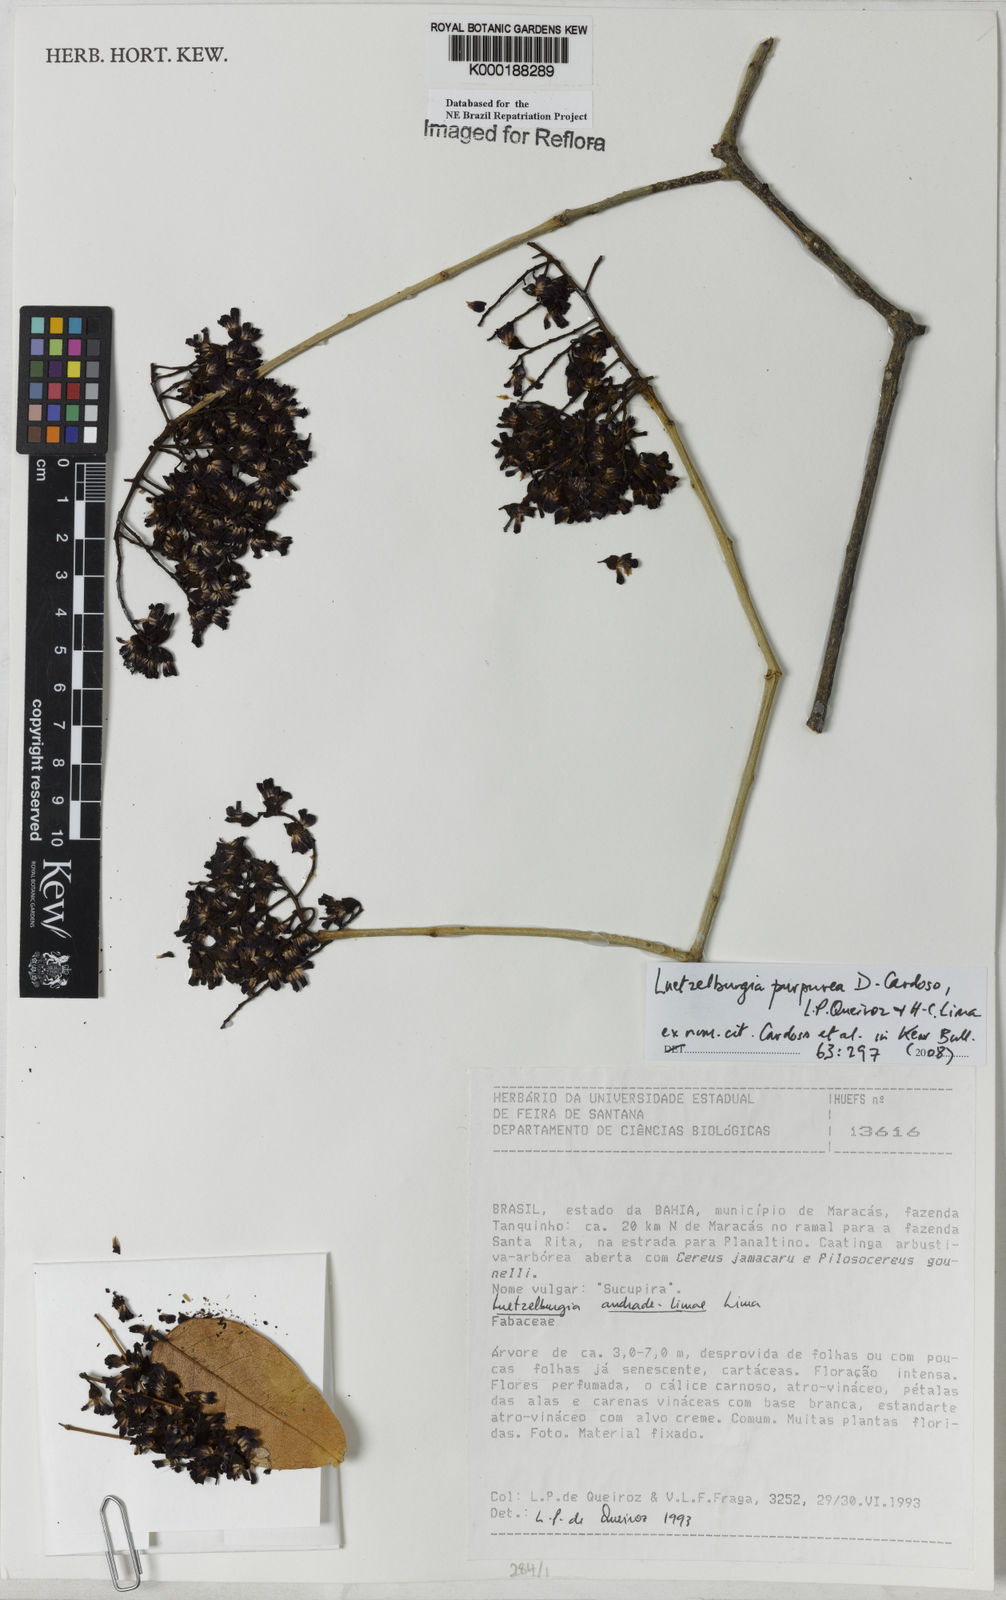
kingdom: Plantae
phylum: Tracheophyta
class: Magnoliopsida
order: Fabales
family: Fabaceae
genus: Luetzelburgia
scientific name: Luetzelburgia andrade-limae
